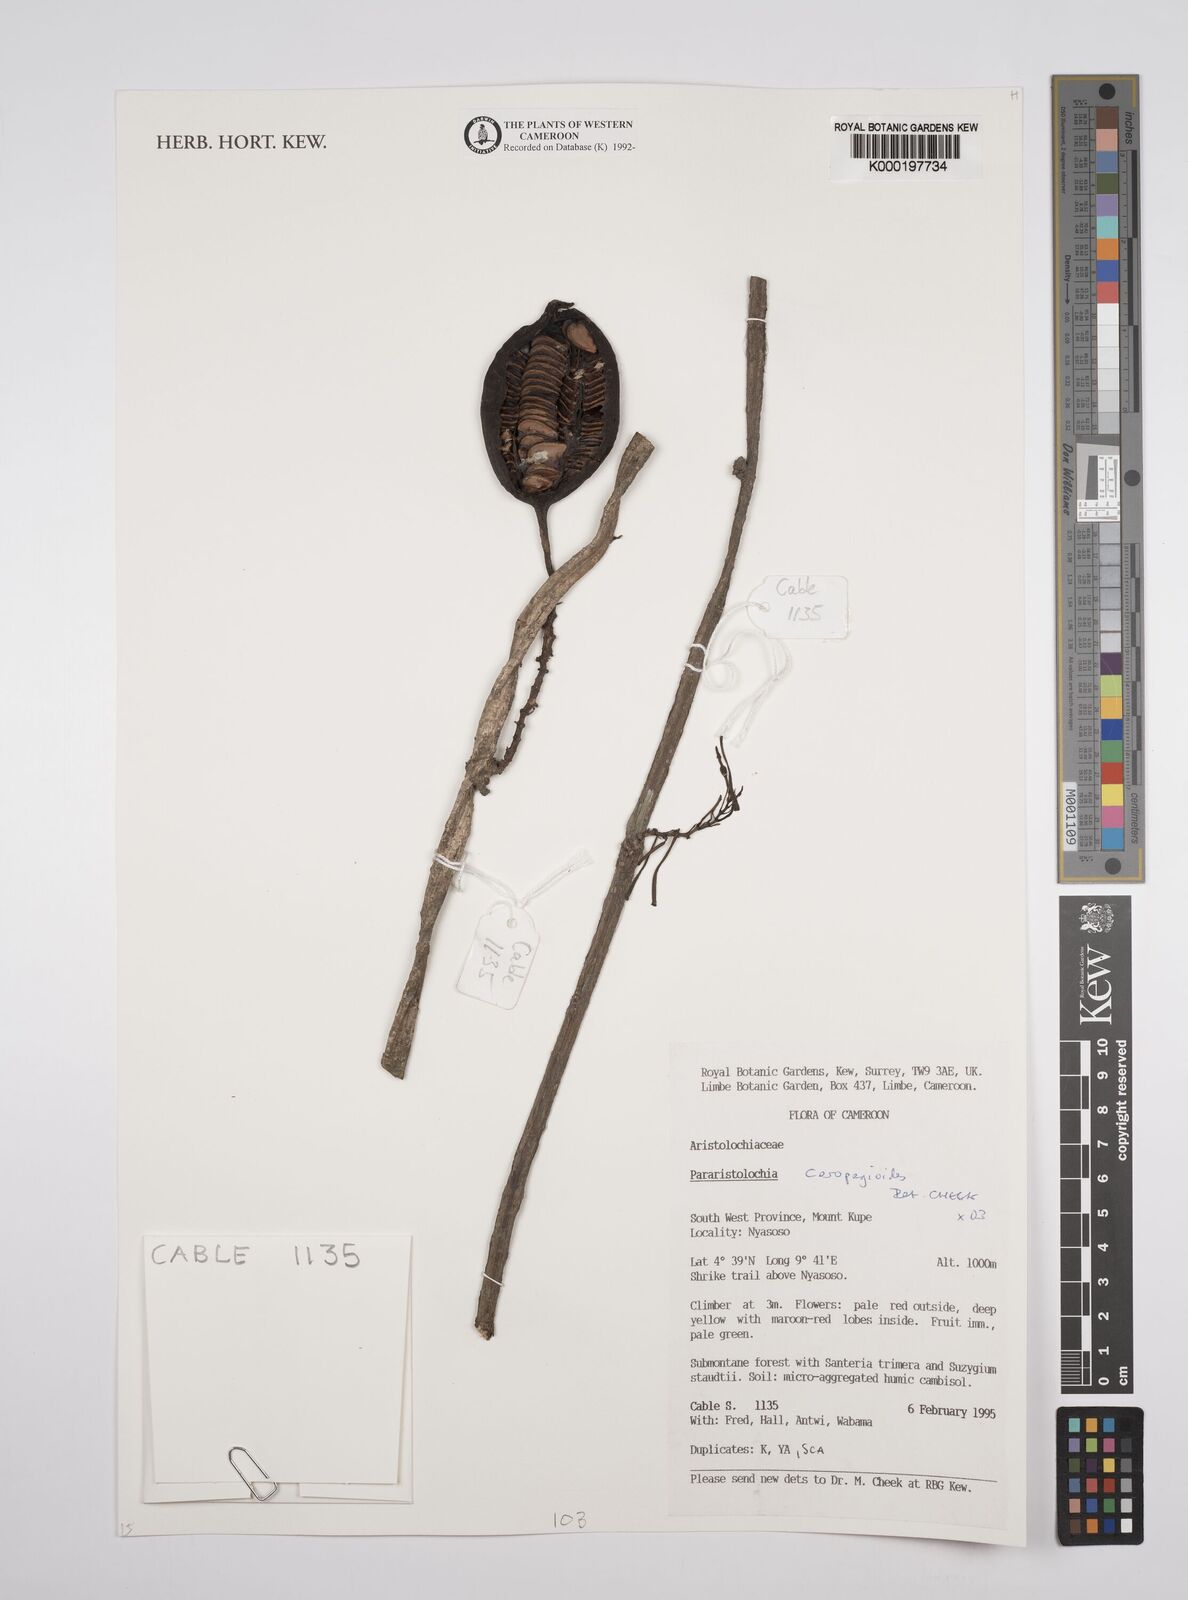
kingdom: Plantae
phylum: Tracheophyta
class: Magnoliopsida
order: Piperales
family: Aristolochiaceae
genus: Aristolochia
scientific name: Aristolochia ceropegioides
